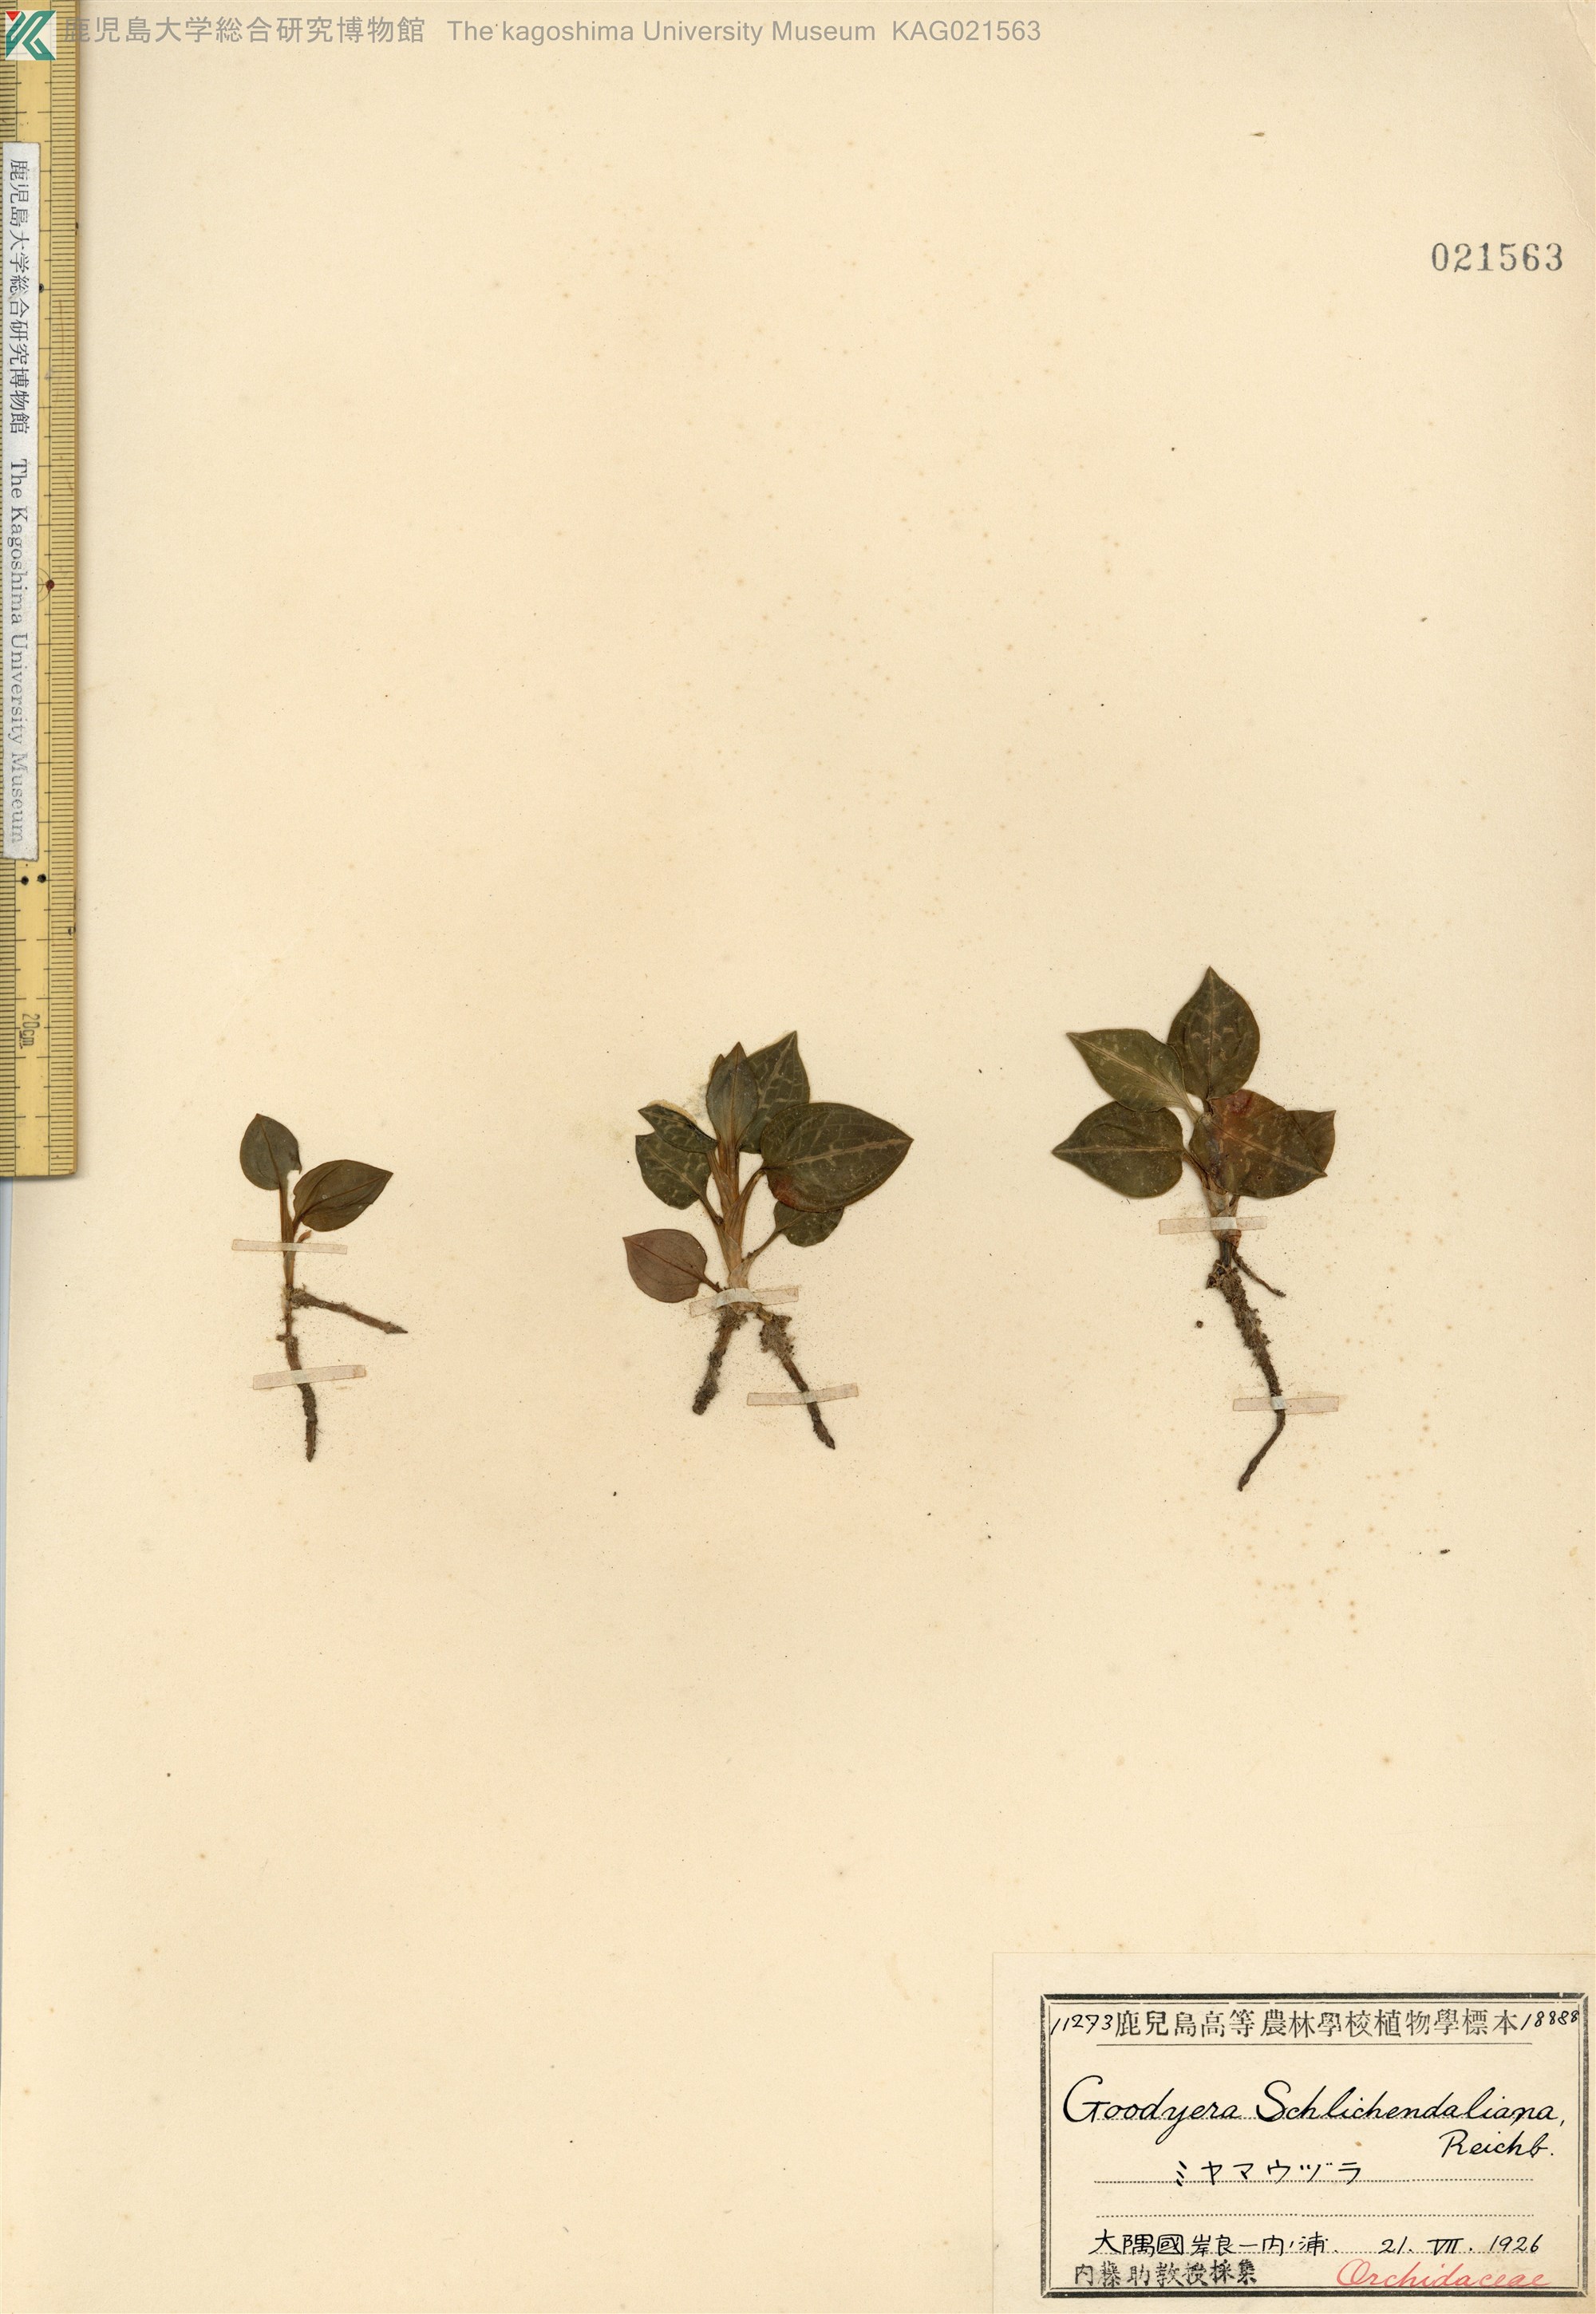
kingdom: Plantae
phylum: Tracheophyta
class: Liliopsida
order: Asparagales
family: Orchidaceae
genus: Goodyera
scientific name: Goodyera schlechtendaliana
